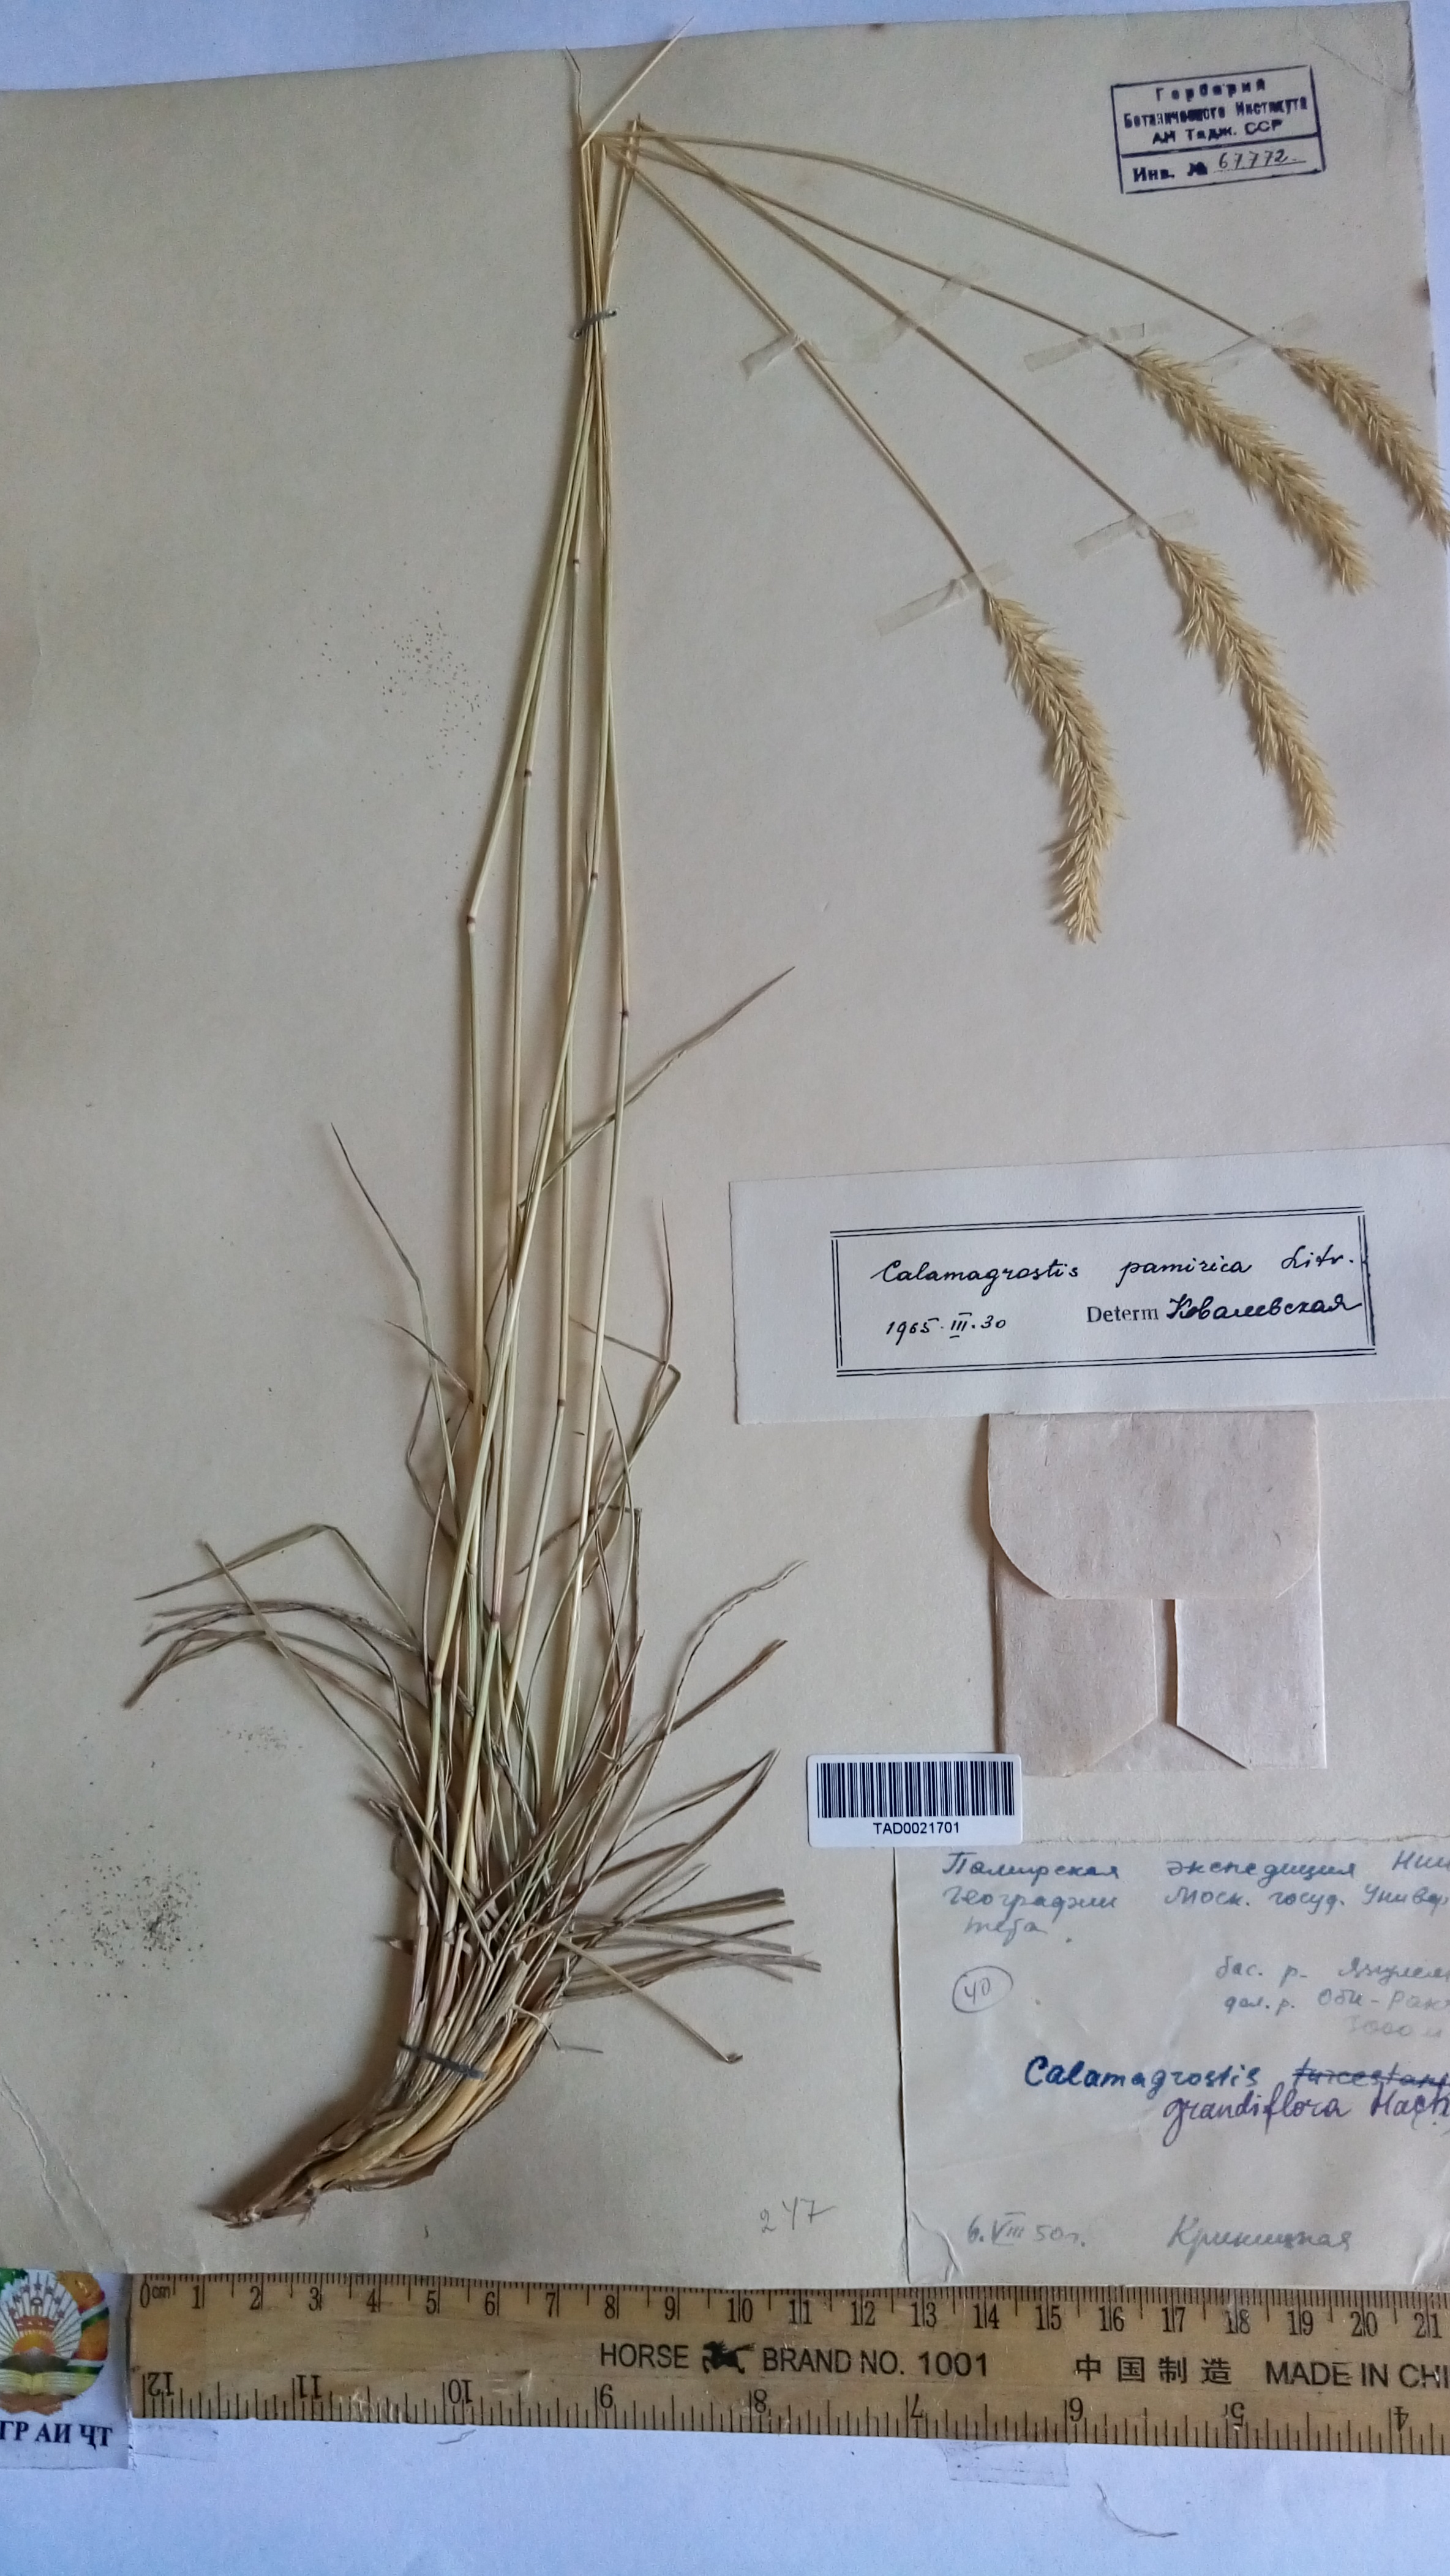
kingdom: Plantae
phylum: Tracheophyta
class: Liliopsida
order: Poales
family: Poaceae
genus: Calamagrostis
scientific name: Calamagrostis holciformis
